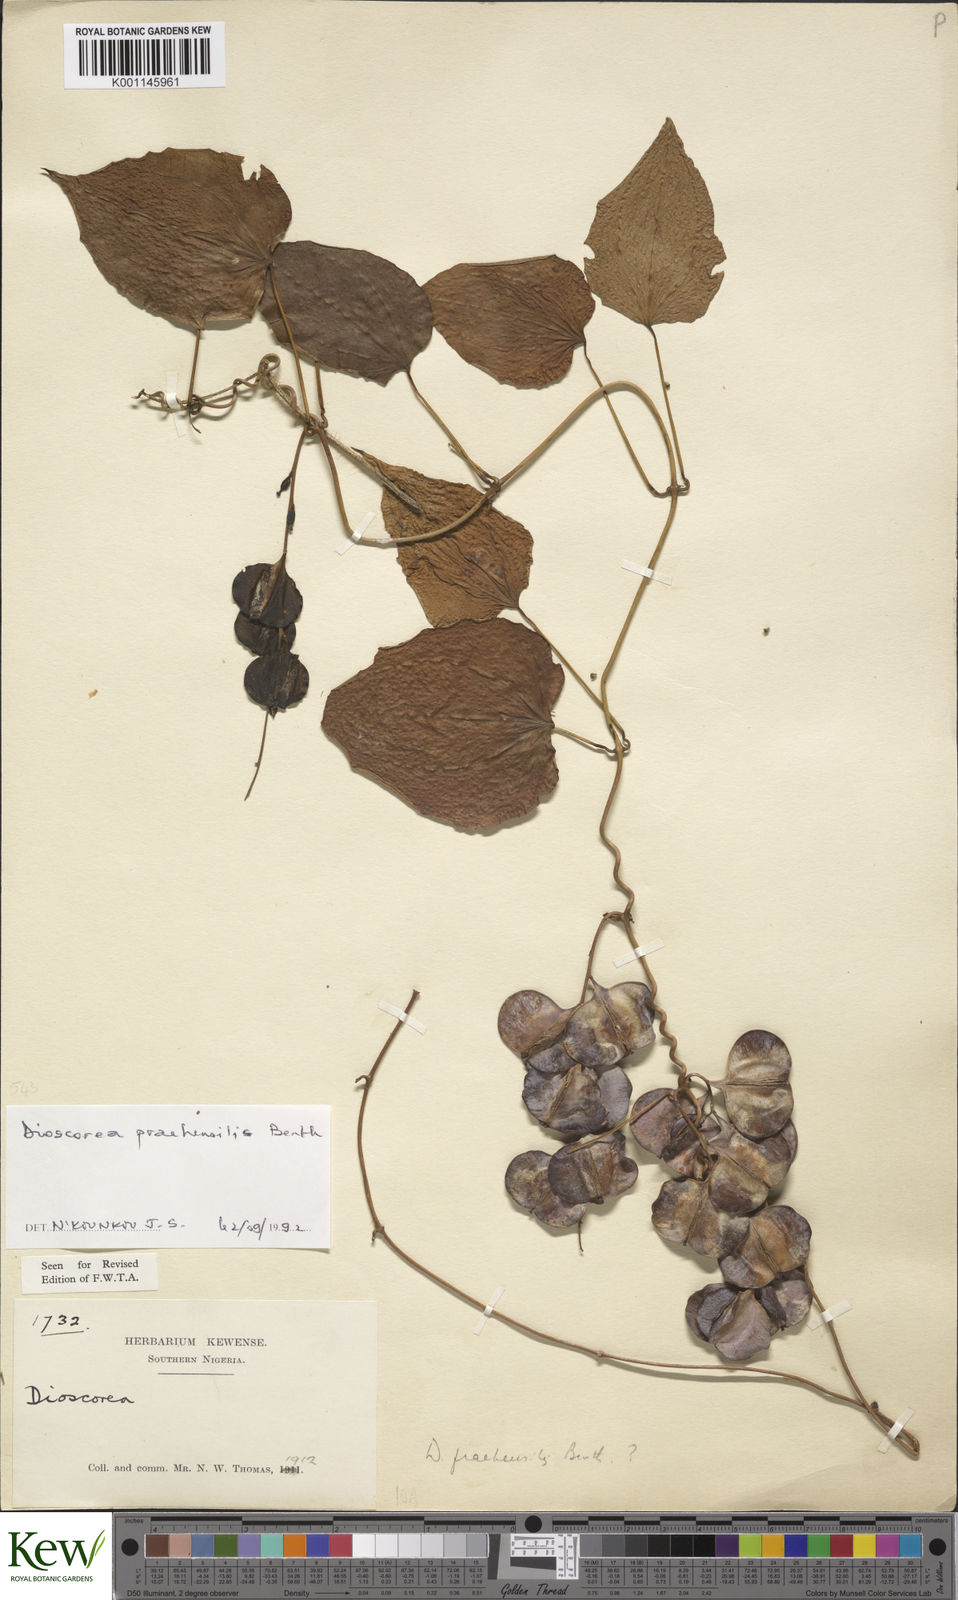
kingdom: Plantae
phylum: Tracheophyta
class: Liliopsida
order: Dioscoreales
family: Dioscoreaceae
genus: Dioscorea
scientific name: Dioscorea praehensilis
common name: Bush yam
